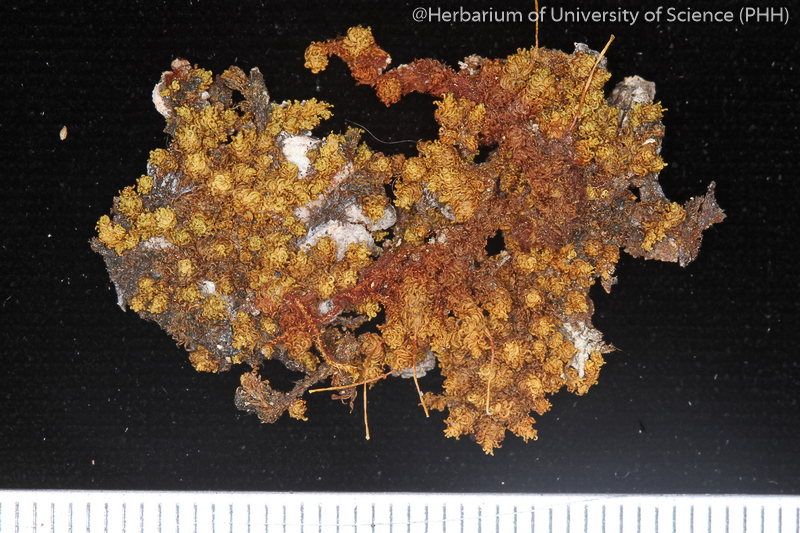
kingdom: Plantae
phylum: Bryophyta
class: Bryopsida
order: Orthotrichales
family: Orthotrichaceae
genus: Macromitrium
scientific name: Macromitrium nepalense
